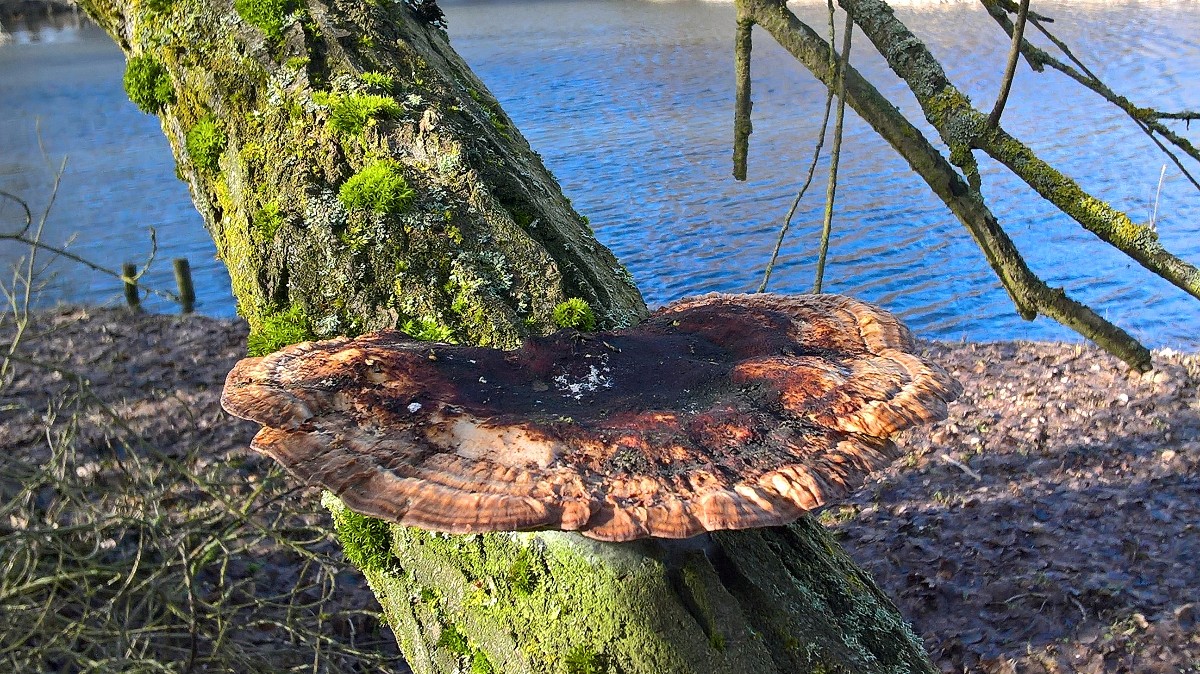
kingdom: Fungi
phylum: Basidiomycota
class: Agaricomycetes
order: Polyporales
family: Polyporaceae
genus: Daedaleopsis
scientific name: Daedaleopsis confragosa
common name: rødmende læderporesvamp
